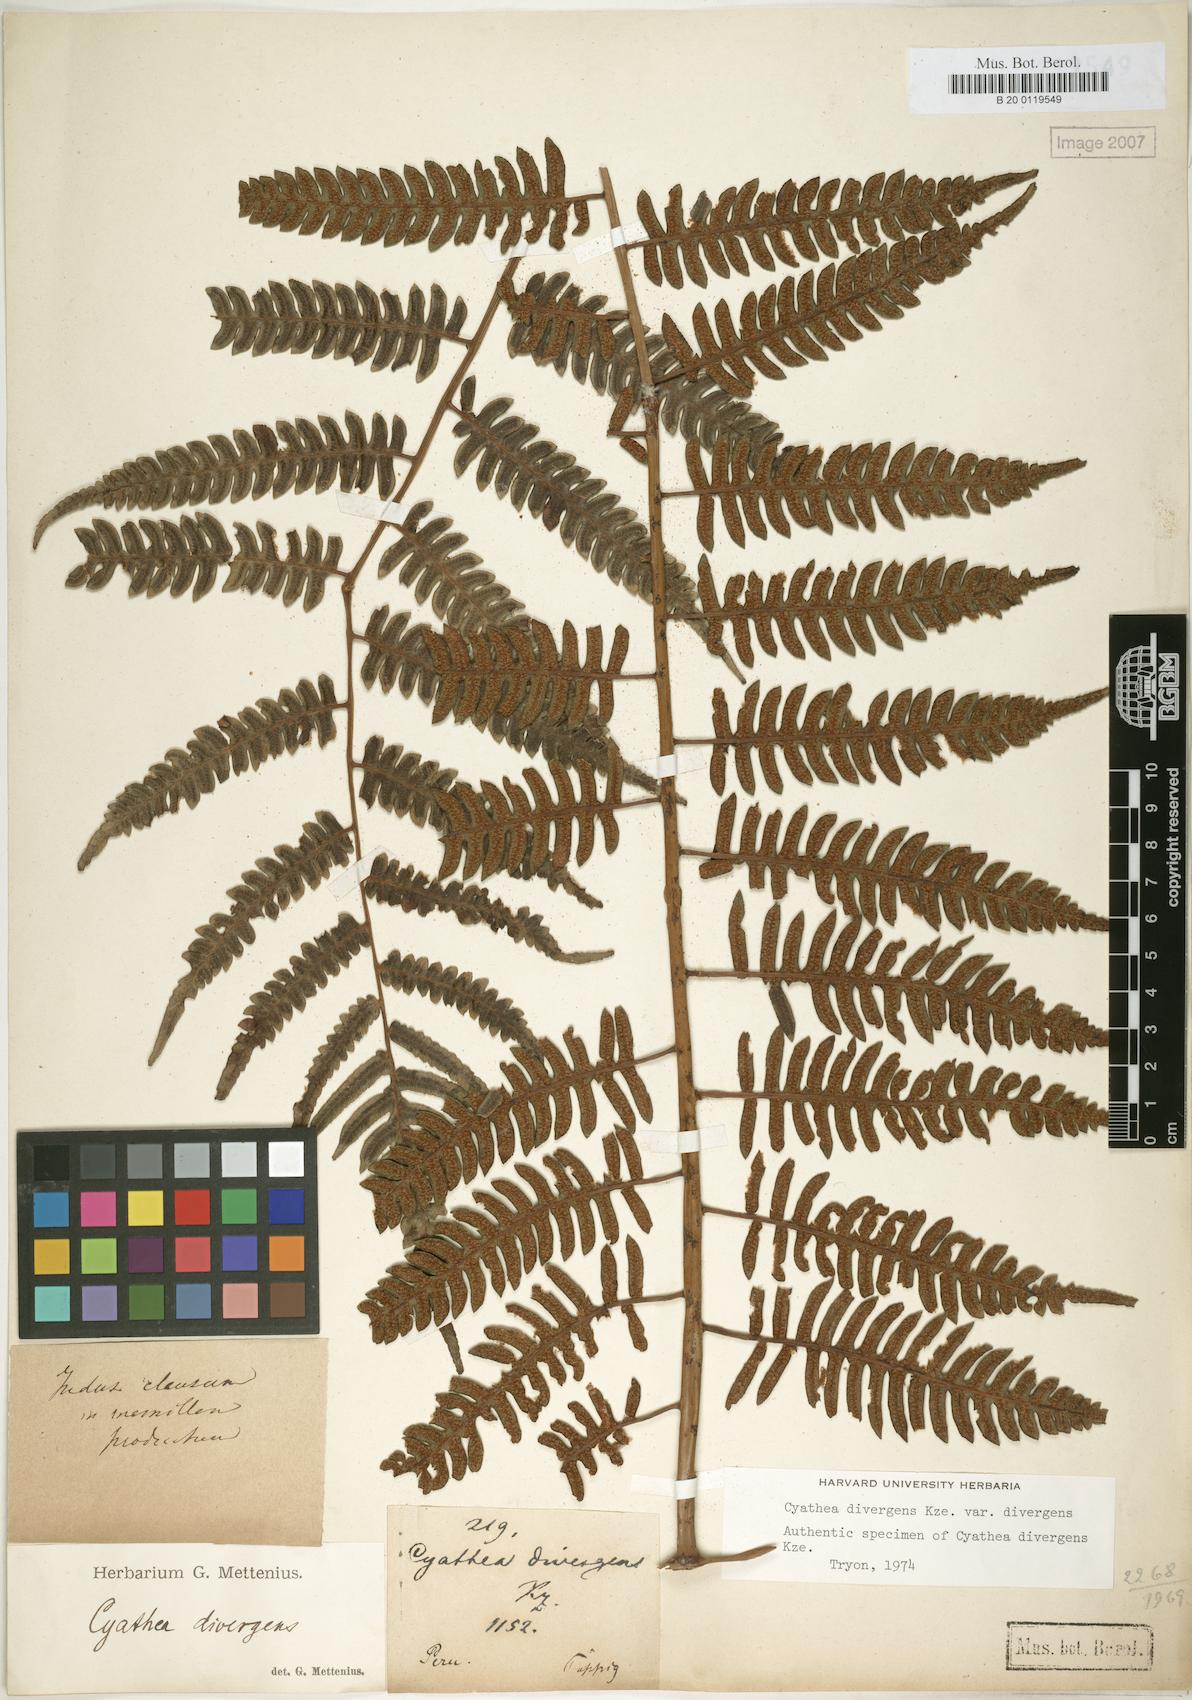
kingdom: Plantae
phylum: Tracheophyta
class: Polypodiopsida
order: Cyatheales
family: Cyatheaceae
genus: Cyathea
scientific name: Cyathea divergens
